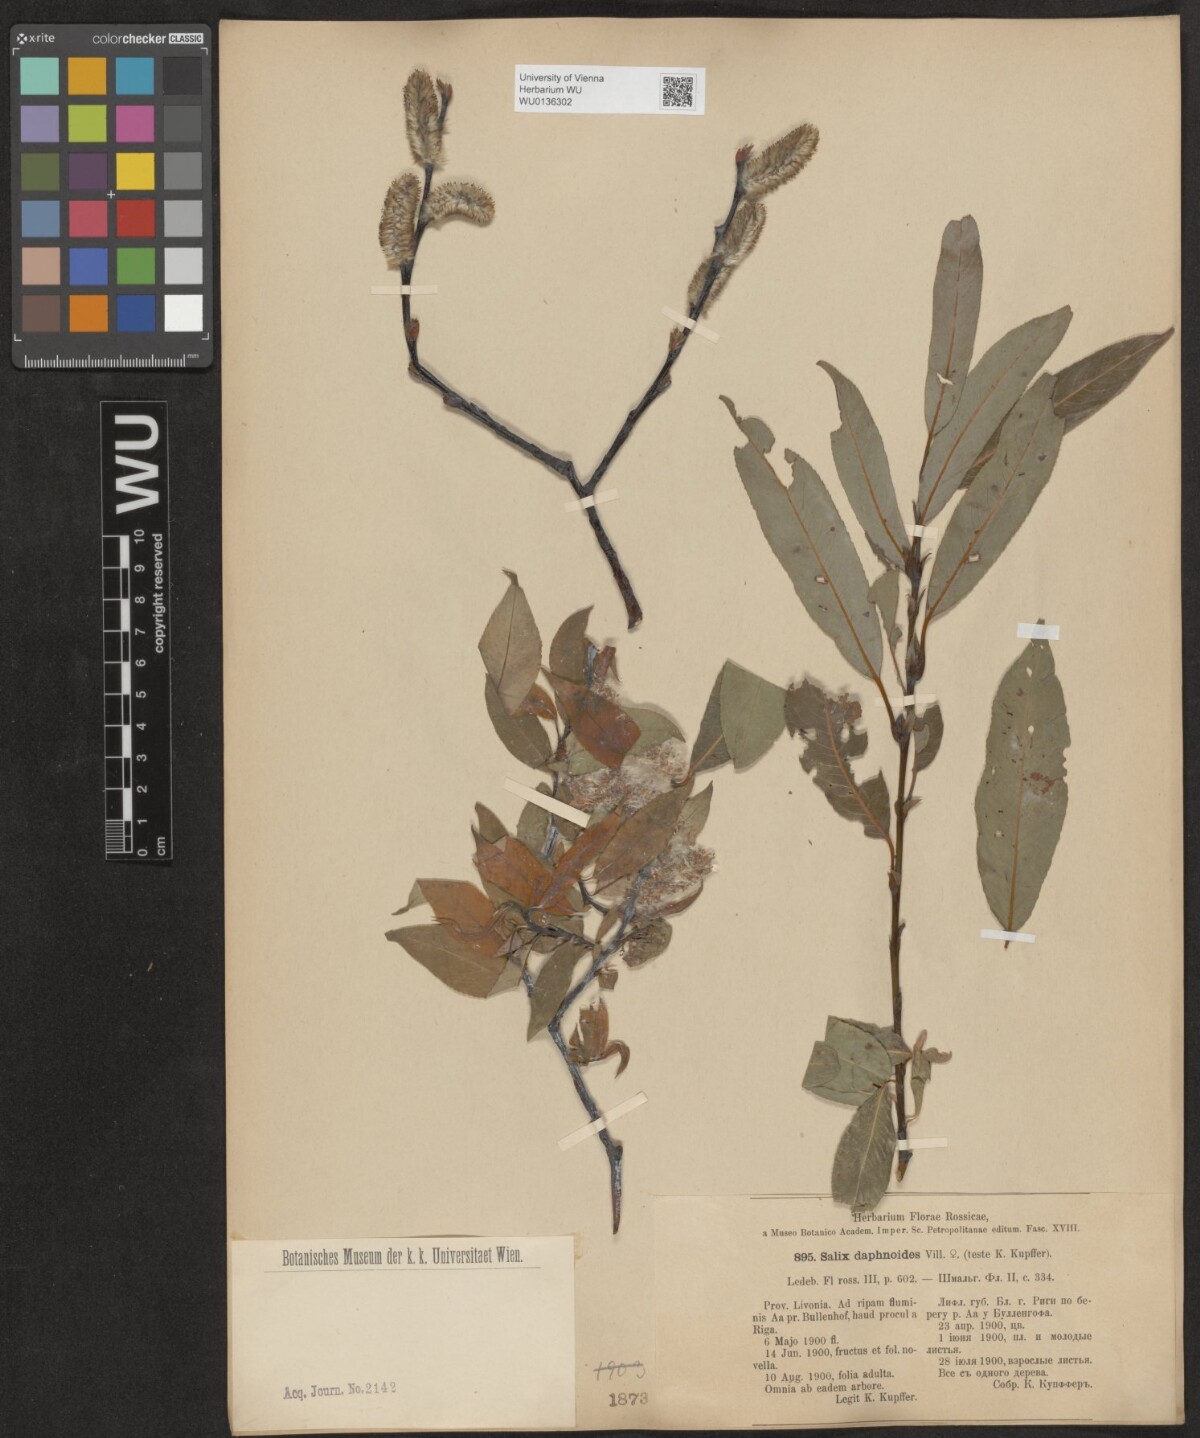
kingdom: Plantae
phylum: Tracheophyta
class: Magnoliopsida
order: Malpighiales
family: Salicaceae
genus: Salix
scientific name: Salix daphnoides
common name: European violet-willow
